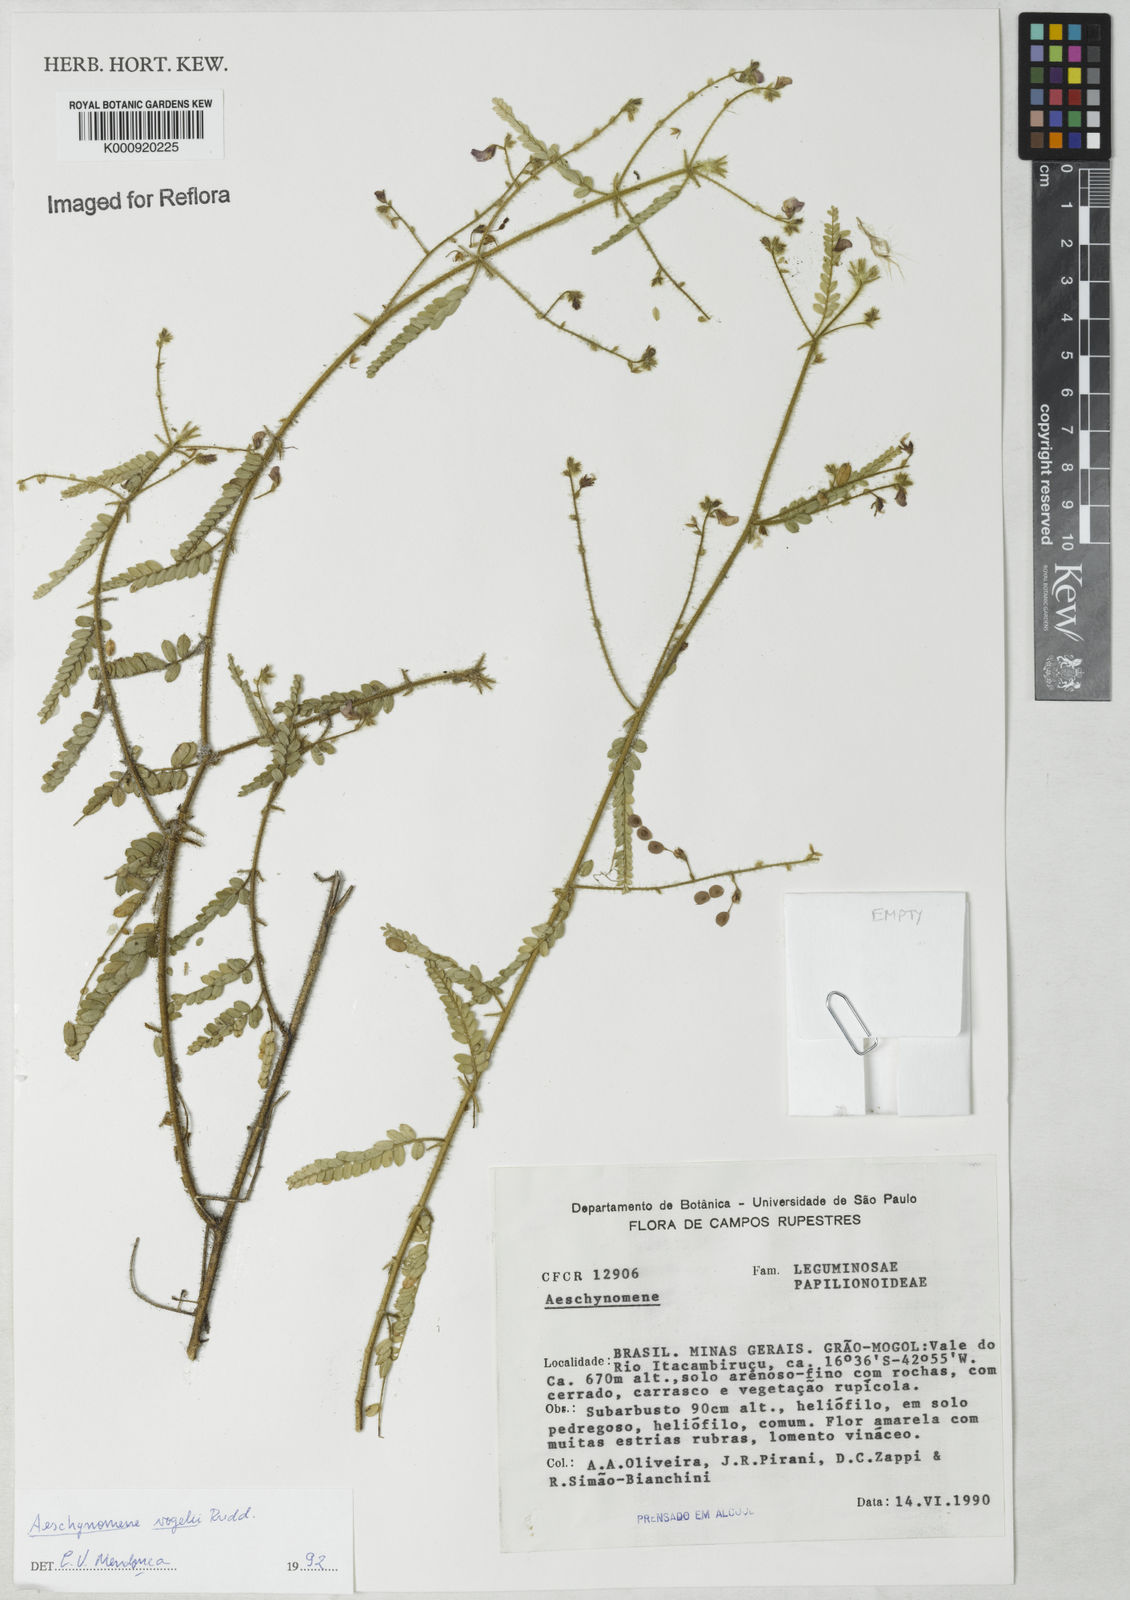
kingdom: Plantae
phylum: Tracheophyta
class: Magnoliopsida
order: Fabales
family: Fabaceae
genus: Ctenodon
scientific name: Ctenodon vogelii
